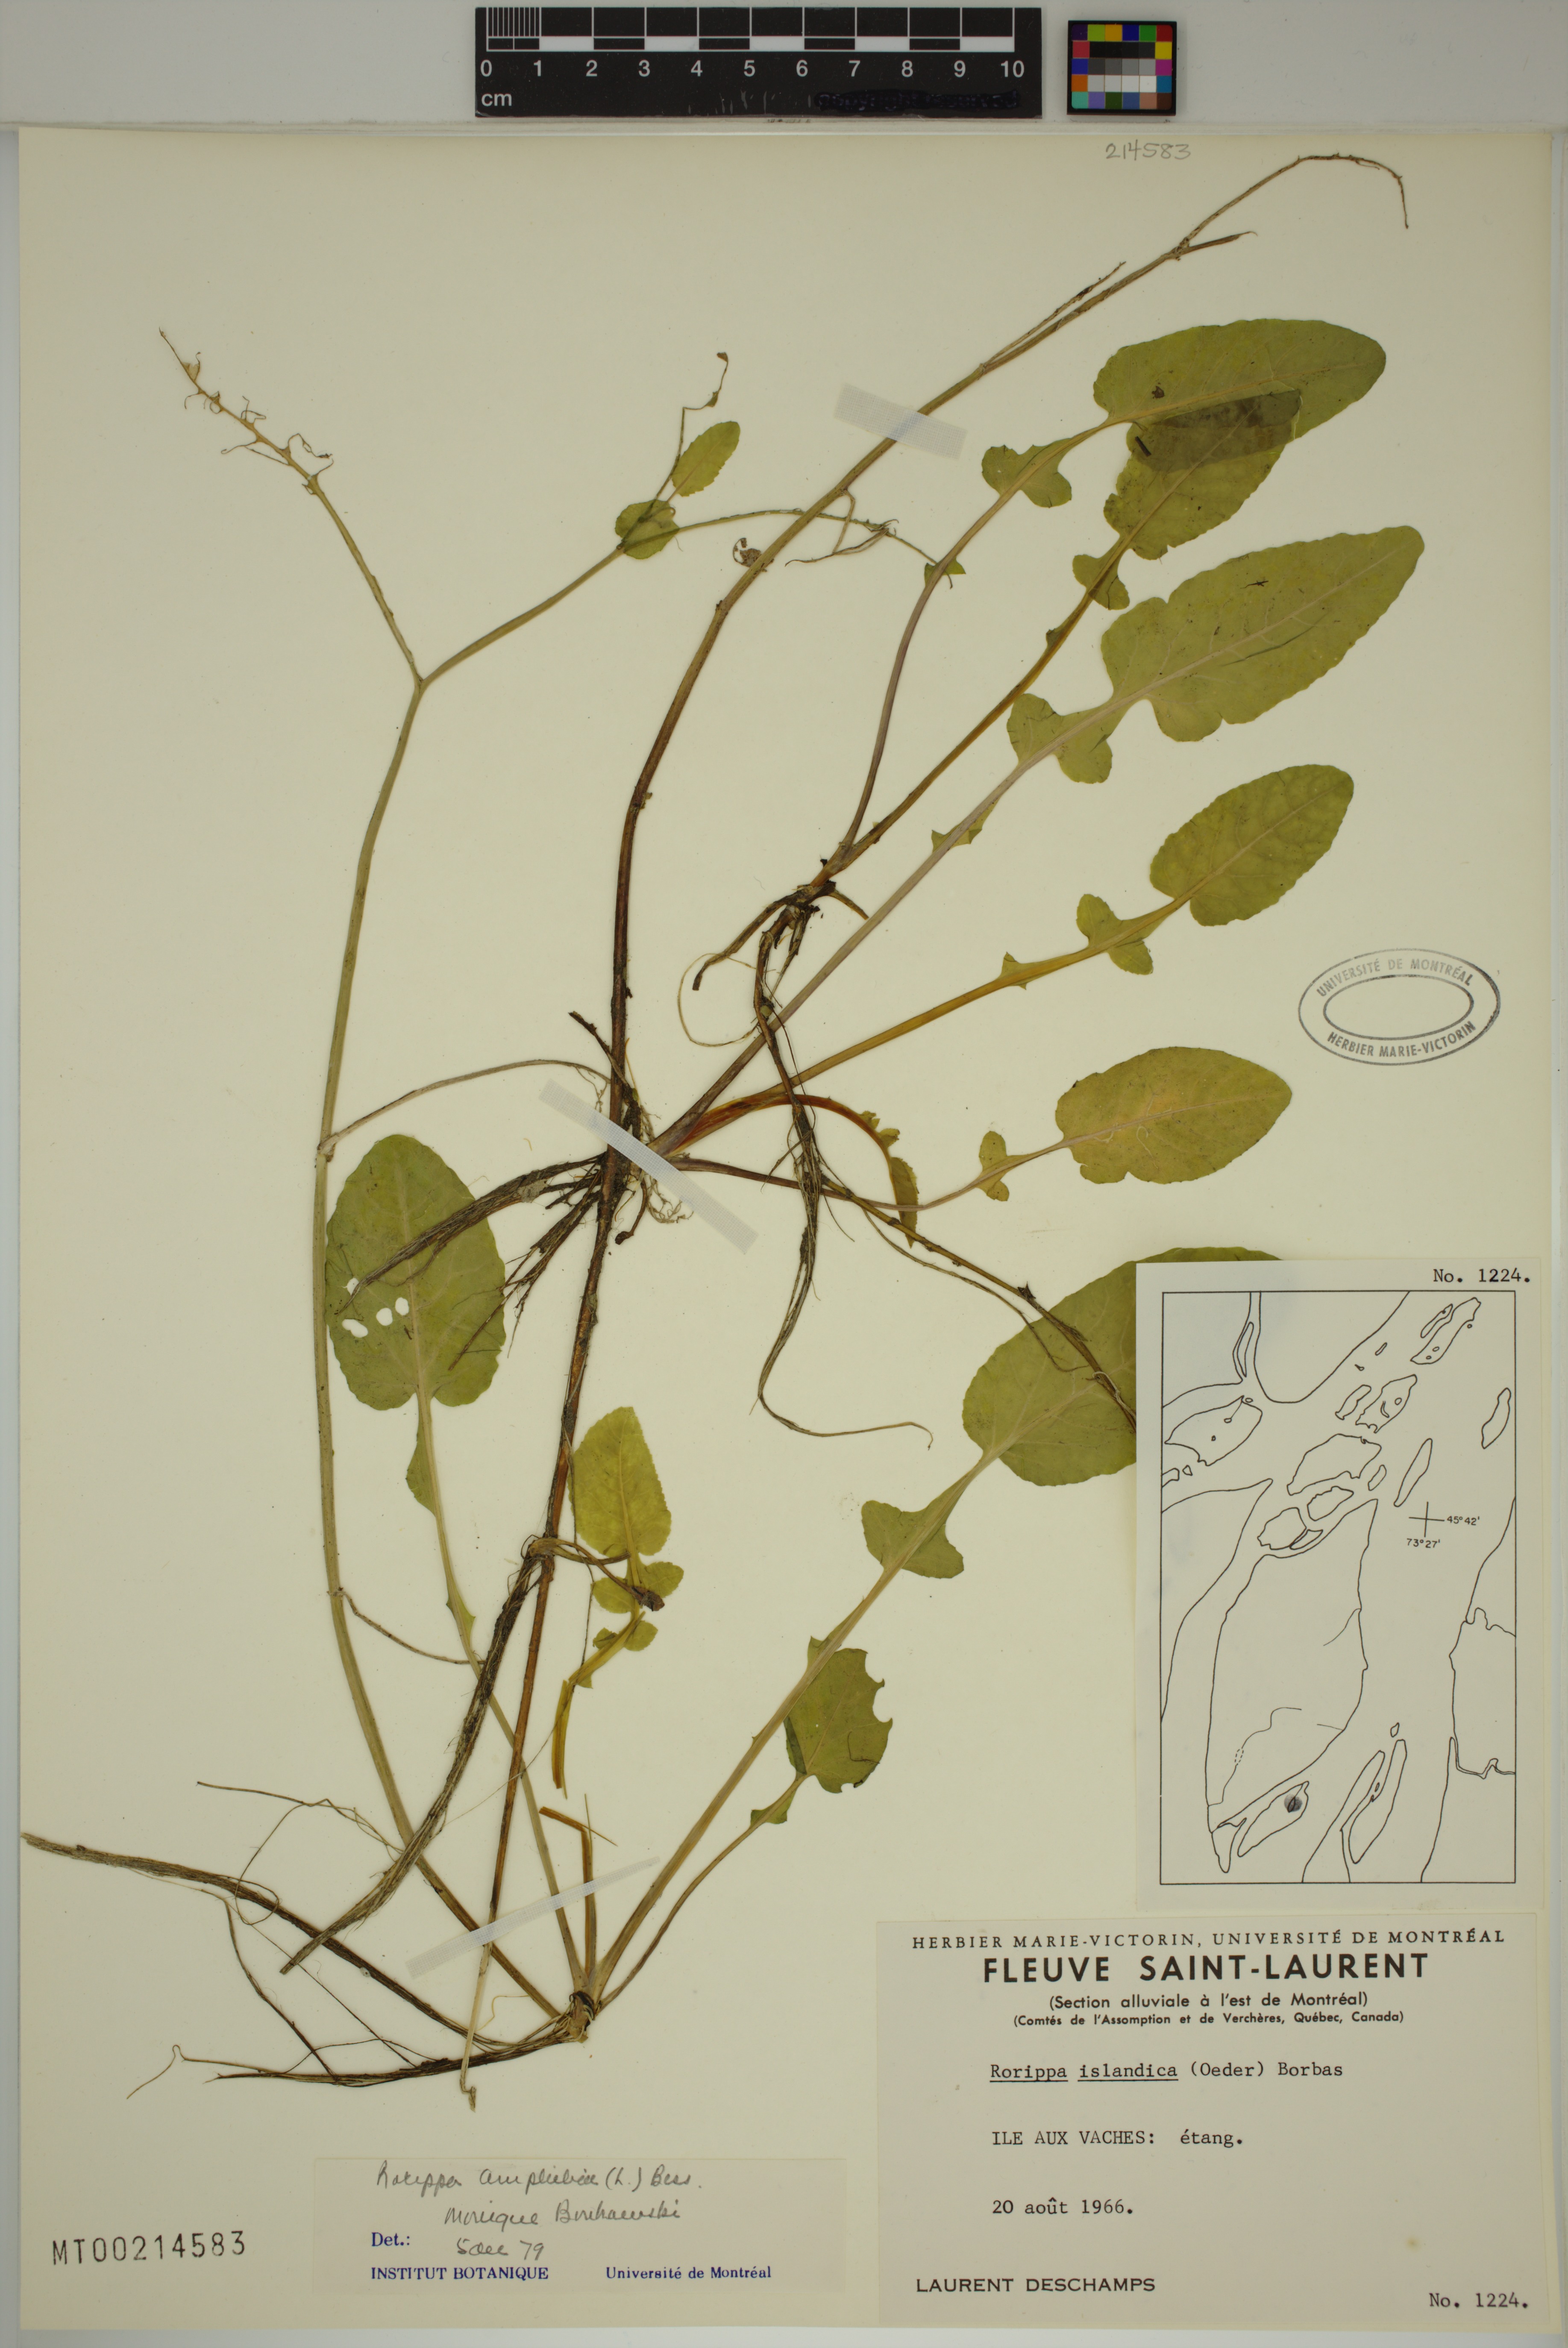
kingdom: Plantae
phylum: Tracheophyta
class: Magnoliopsida
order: Brassicales
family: Brassicaceae
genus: Rorippa
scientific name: Rorippa amphibia
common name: Great yellow-cress
